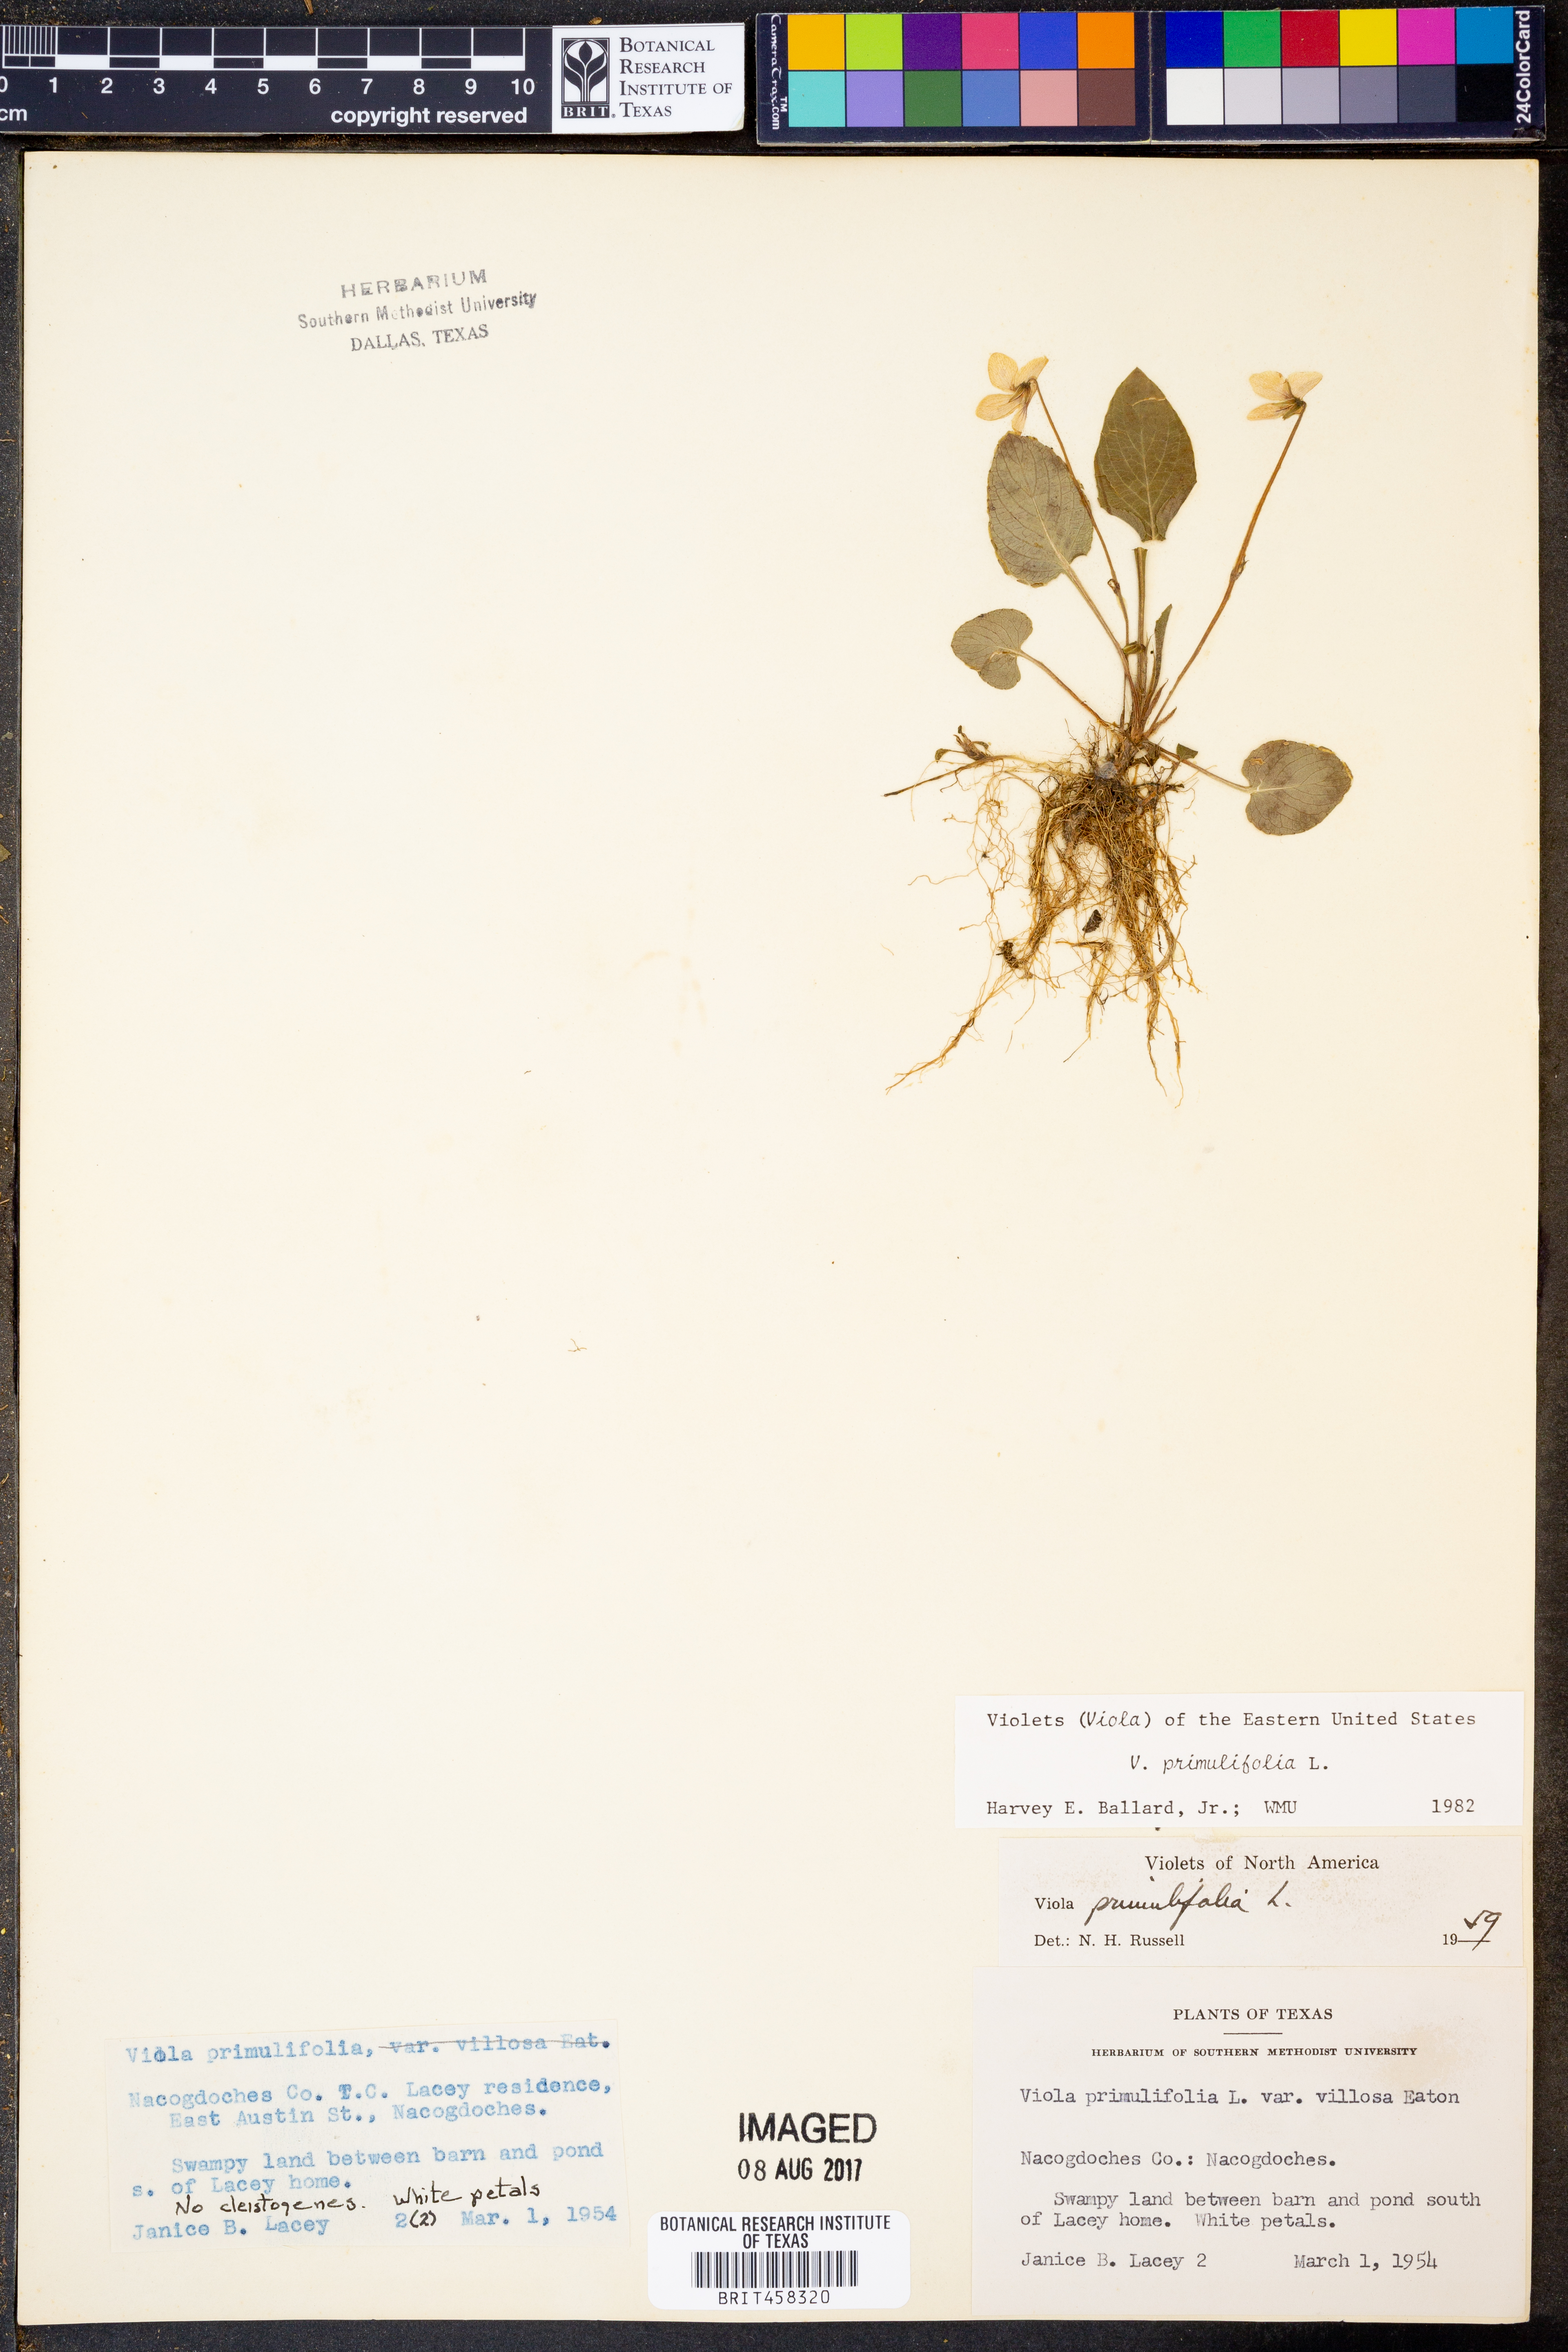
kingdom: Plantae
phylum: Tracheophyta
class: Magnoliopsida
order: Malpighiales
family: Violaceae
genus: Viola
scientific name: Viola primulifolia
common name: Primrose-leaf violet
